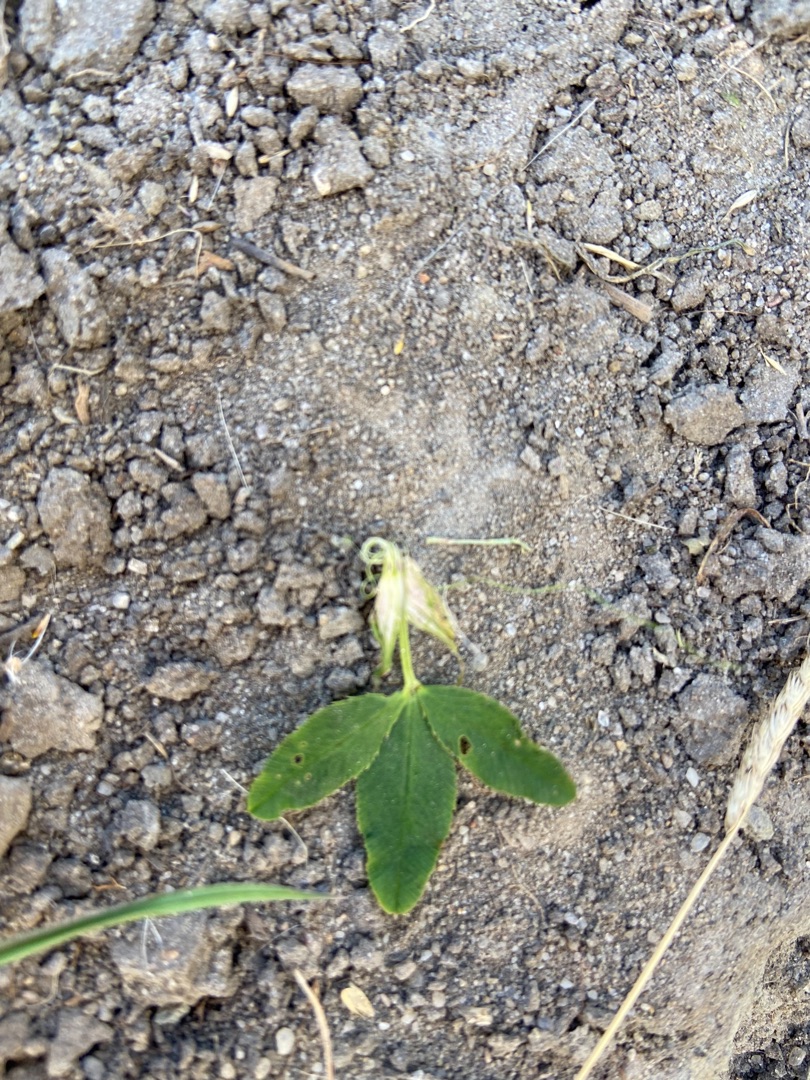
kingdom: Plantae
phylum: Tracheophyta
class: Magnoliopsida
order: Fabales
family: Fabaceae
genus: Trifolium
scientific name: Trifolium hybridum
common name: Alsike-kløver
